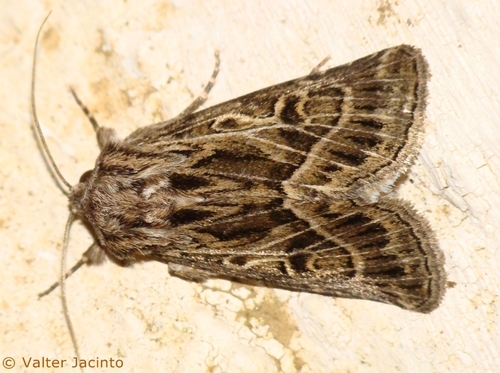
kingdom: Animalia
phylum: Arthropoda
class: Insecta
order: Lepidoptera
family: Noctuidae
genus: Thalpophila
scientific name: Thalpophila vitalba
